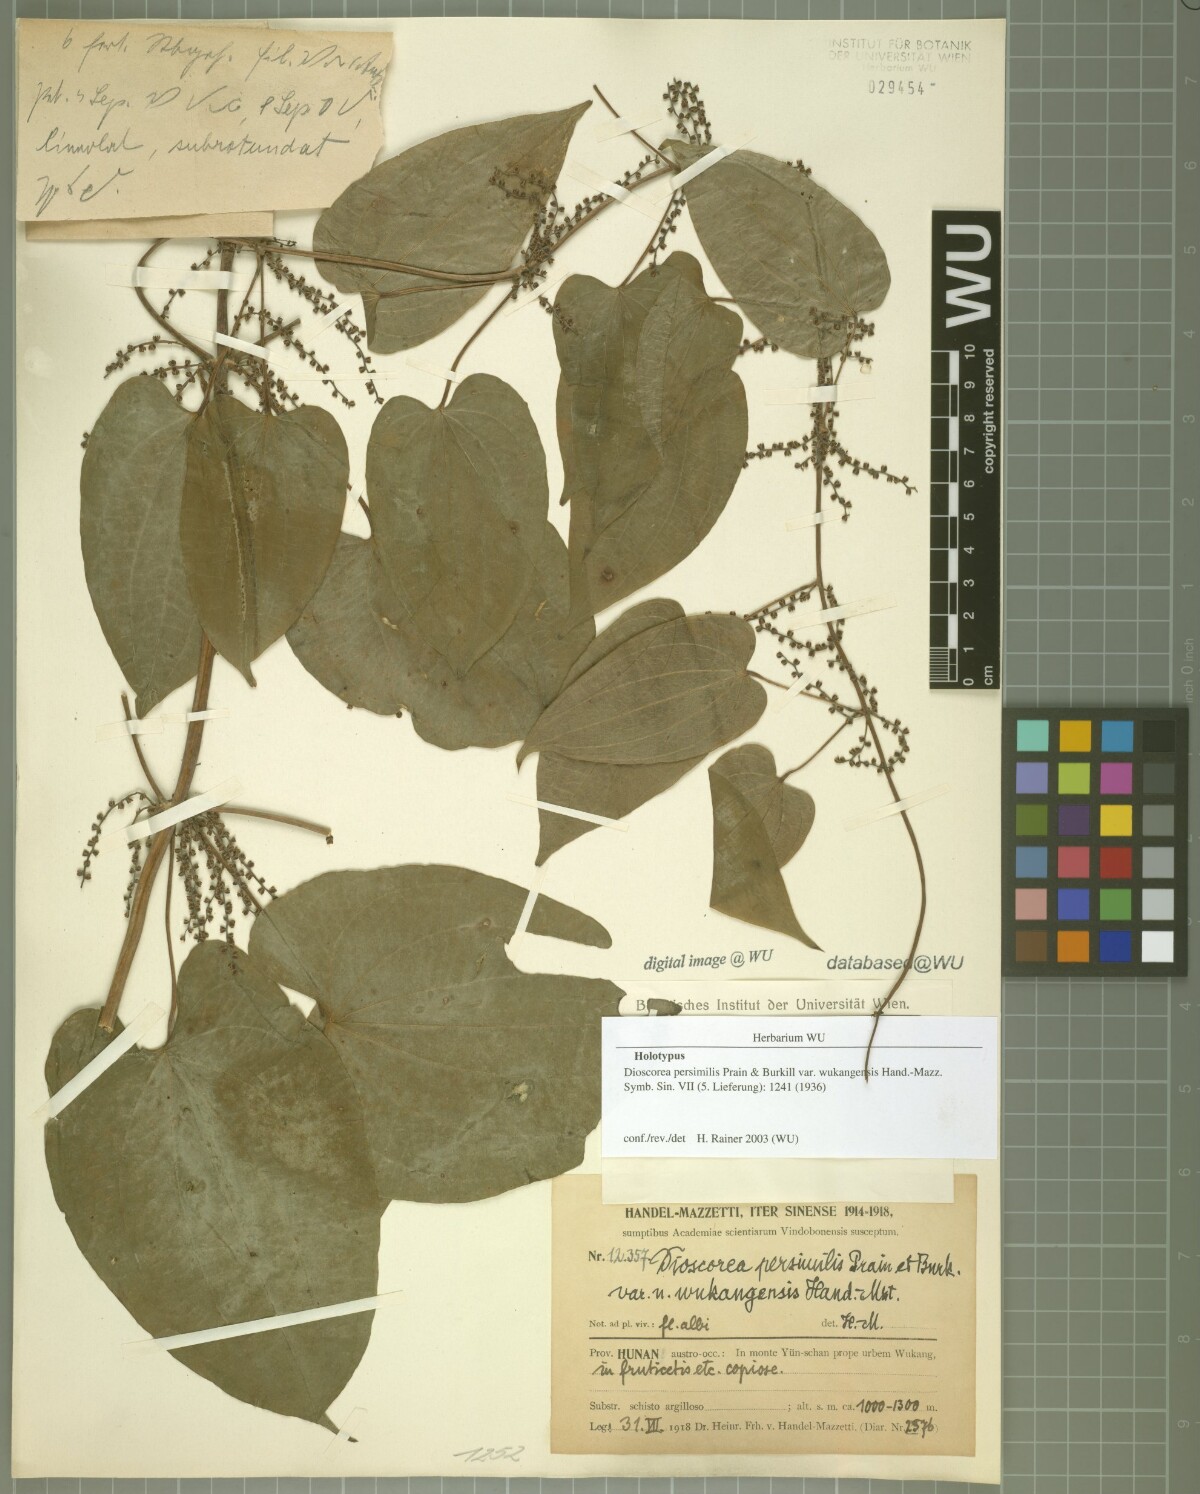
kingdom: Plantae
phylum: Tracheophyta
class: Liliopsida
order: Dioscoreales
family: Dioscoreaceae
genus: Dioscorea
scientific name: Dioscorea hamiltonii
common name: Mountain yam
